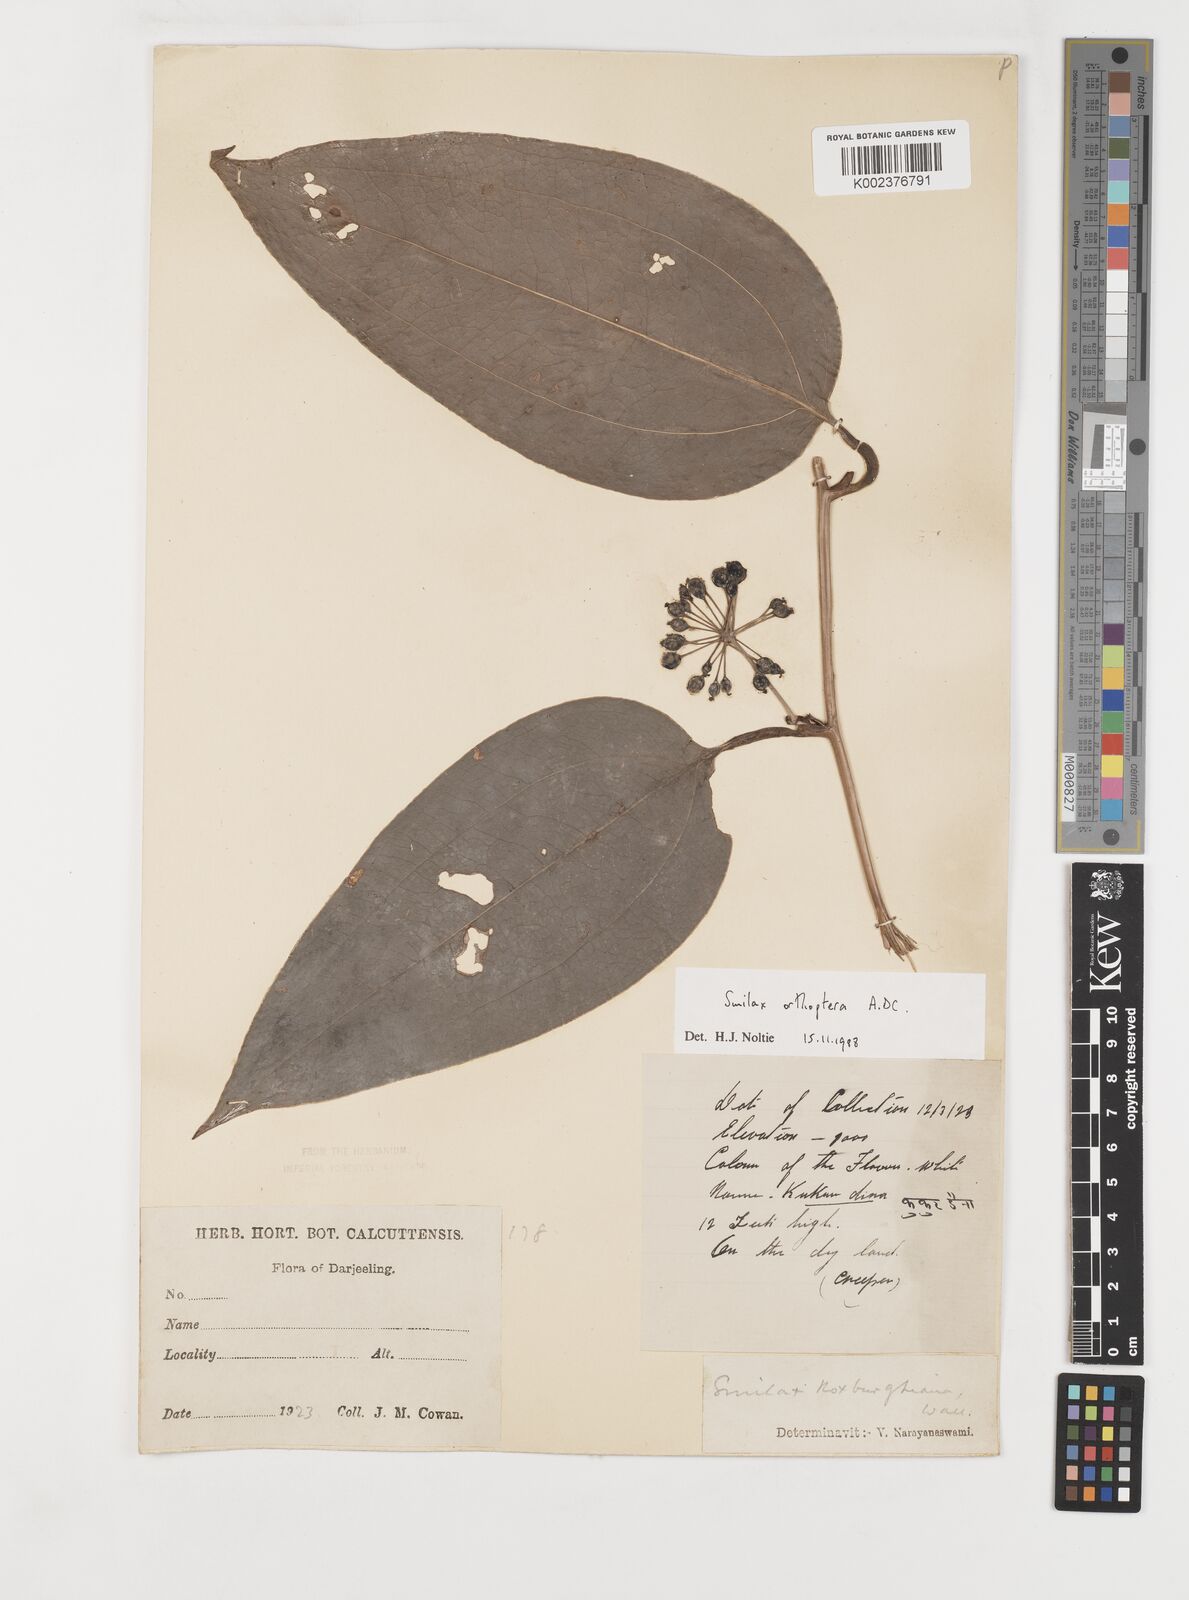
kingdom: Plantae
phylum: Tracheophyta
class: Liliopsida
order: Liliales
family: Smilacaceae
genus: Smilax
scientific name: Smilax orthoptera
